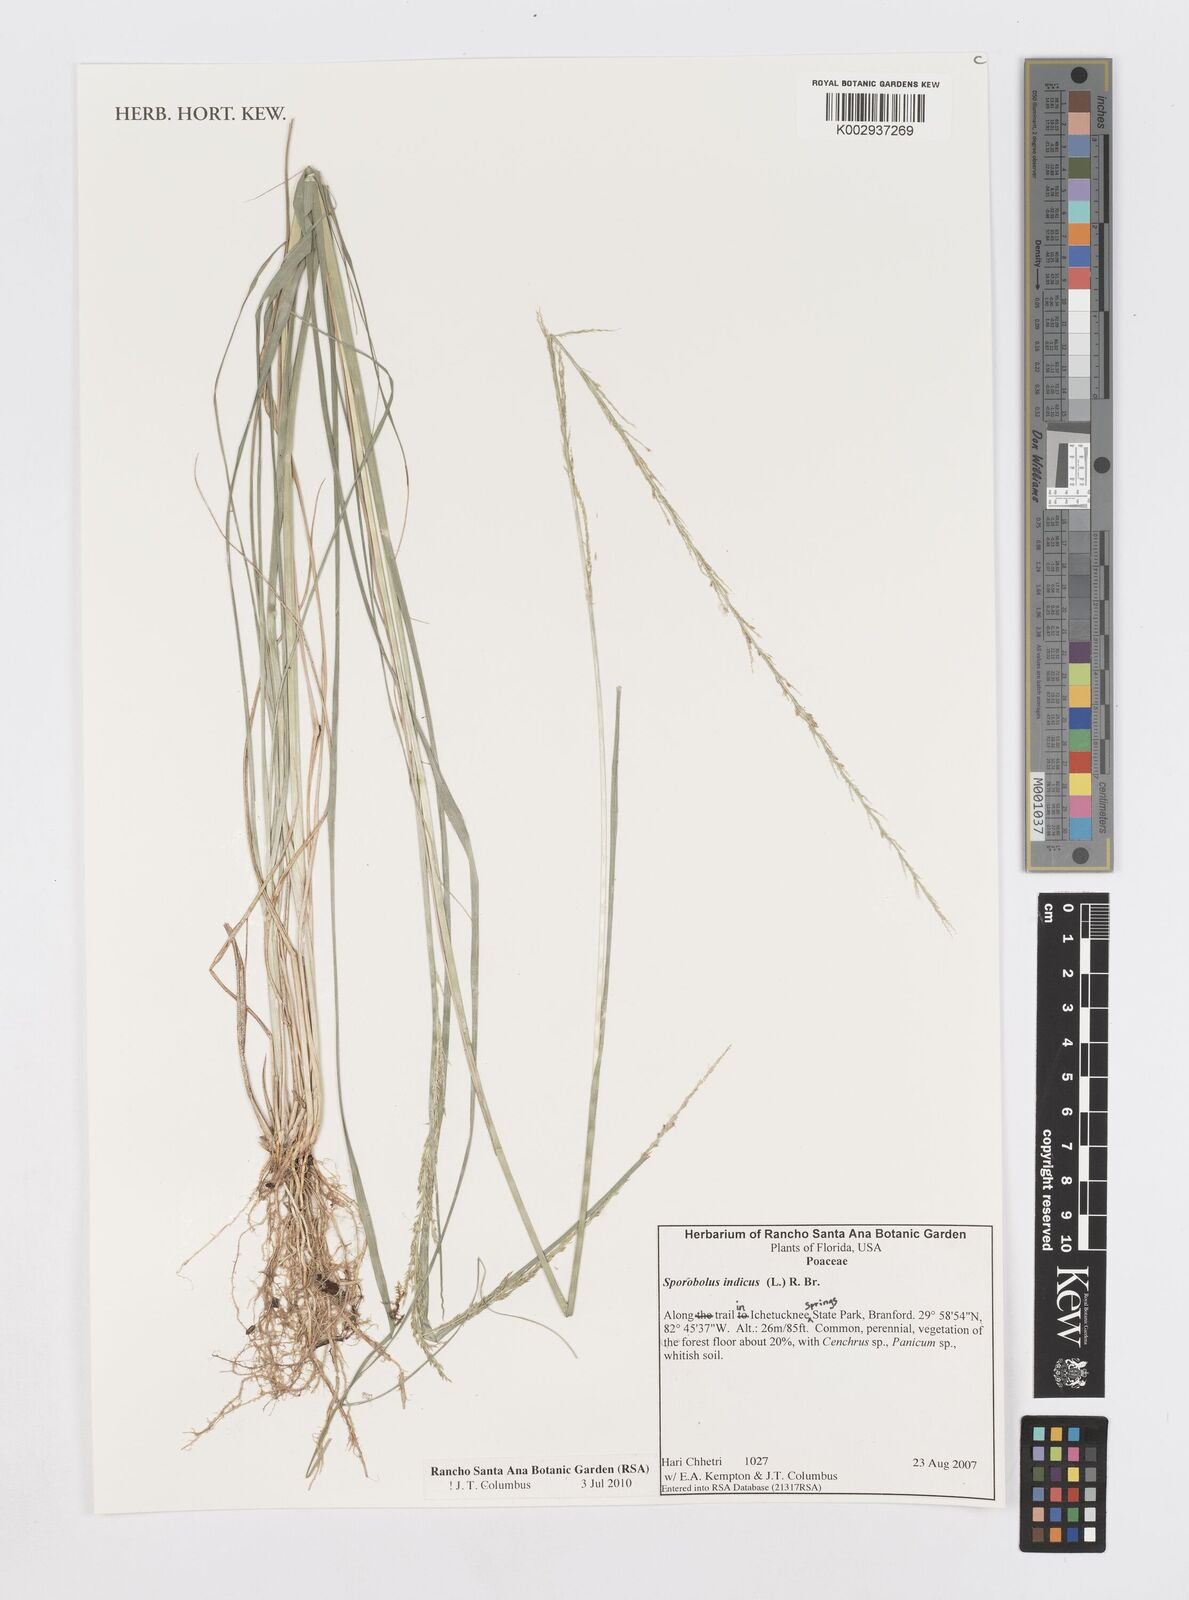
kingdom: Plantae
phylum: Tracheophyta
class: Liliopsida
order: Poales
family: Poaceae
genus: Sporobolus
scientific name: Sporobolus indicus
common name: Smut grass
